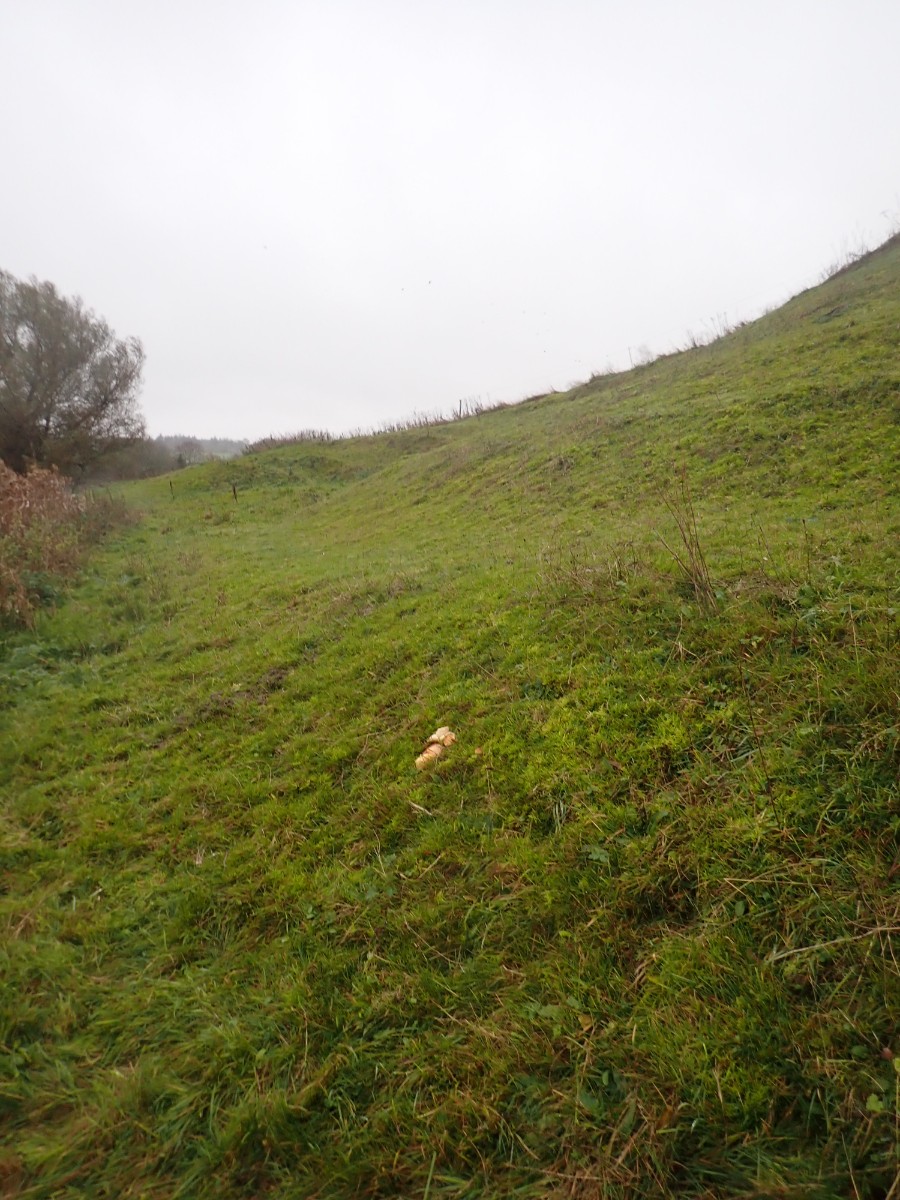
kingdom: Fungi
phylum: Basidiomycota
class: Agaricomycetes
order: Agaricales
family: Hygrophoraceae
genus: Hygrocybe
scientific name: Hygrocybe punicea
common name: skarlagen-vokshat
